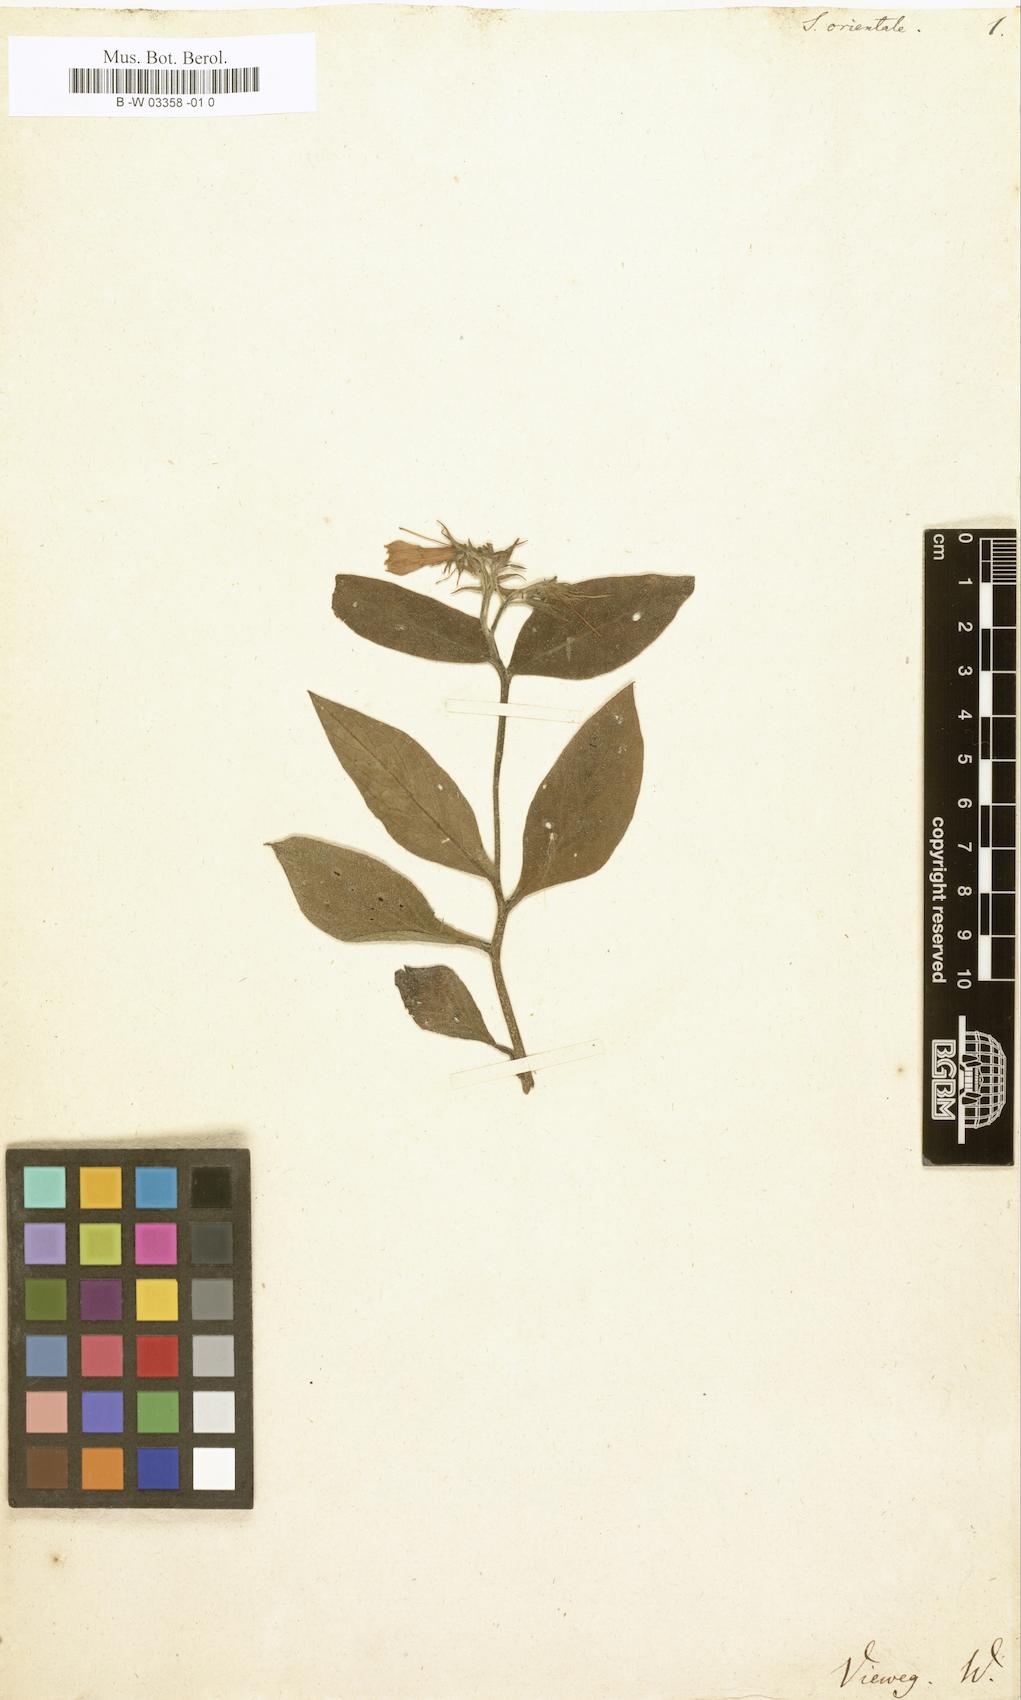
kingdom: Plantae
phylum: Tracheophyta
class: Magnoliopsida
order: Boraginales
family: Boraginaceae
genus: Symphytum
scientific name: Symphytum orientale
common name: White comfrey
